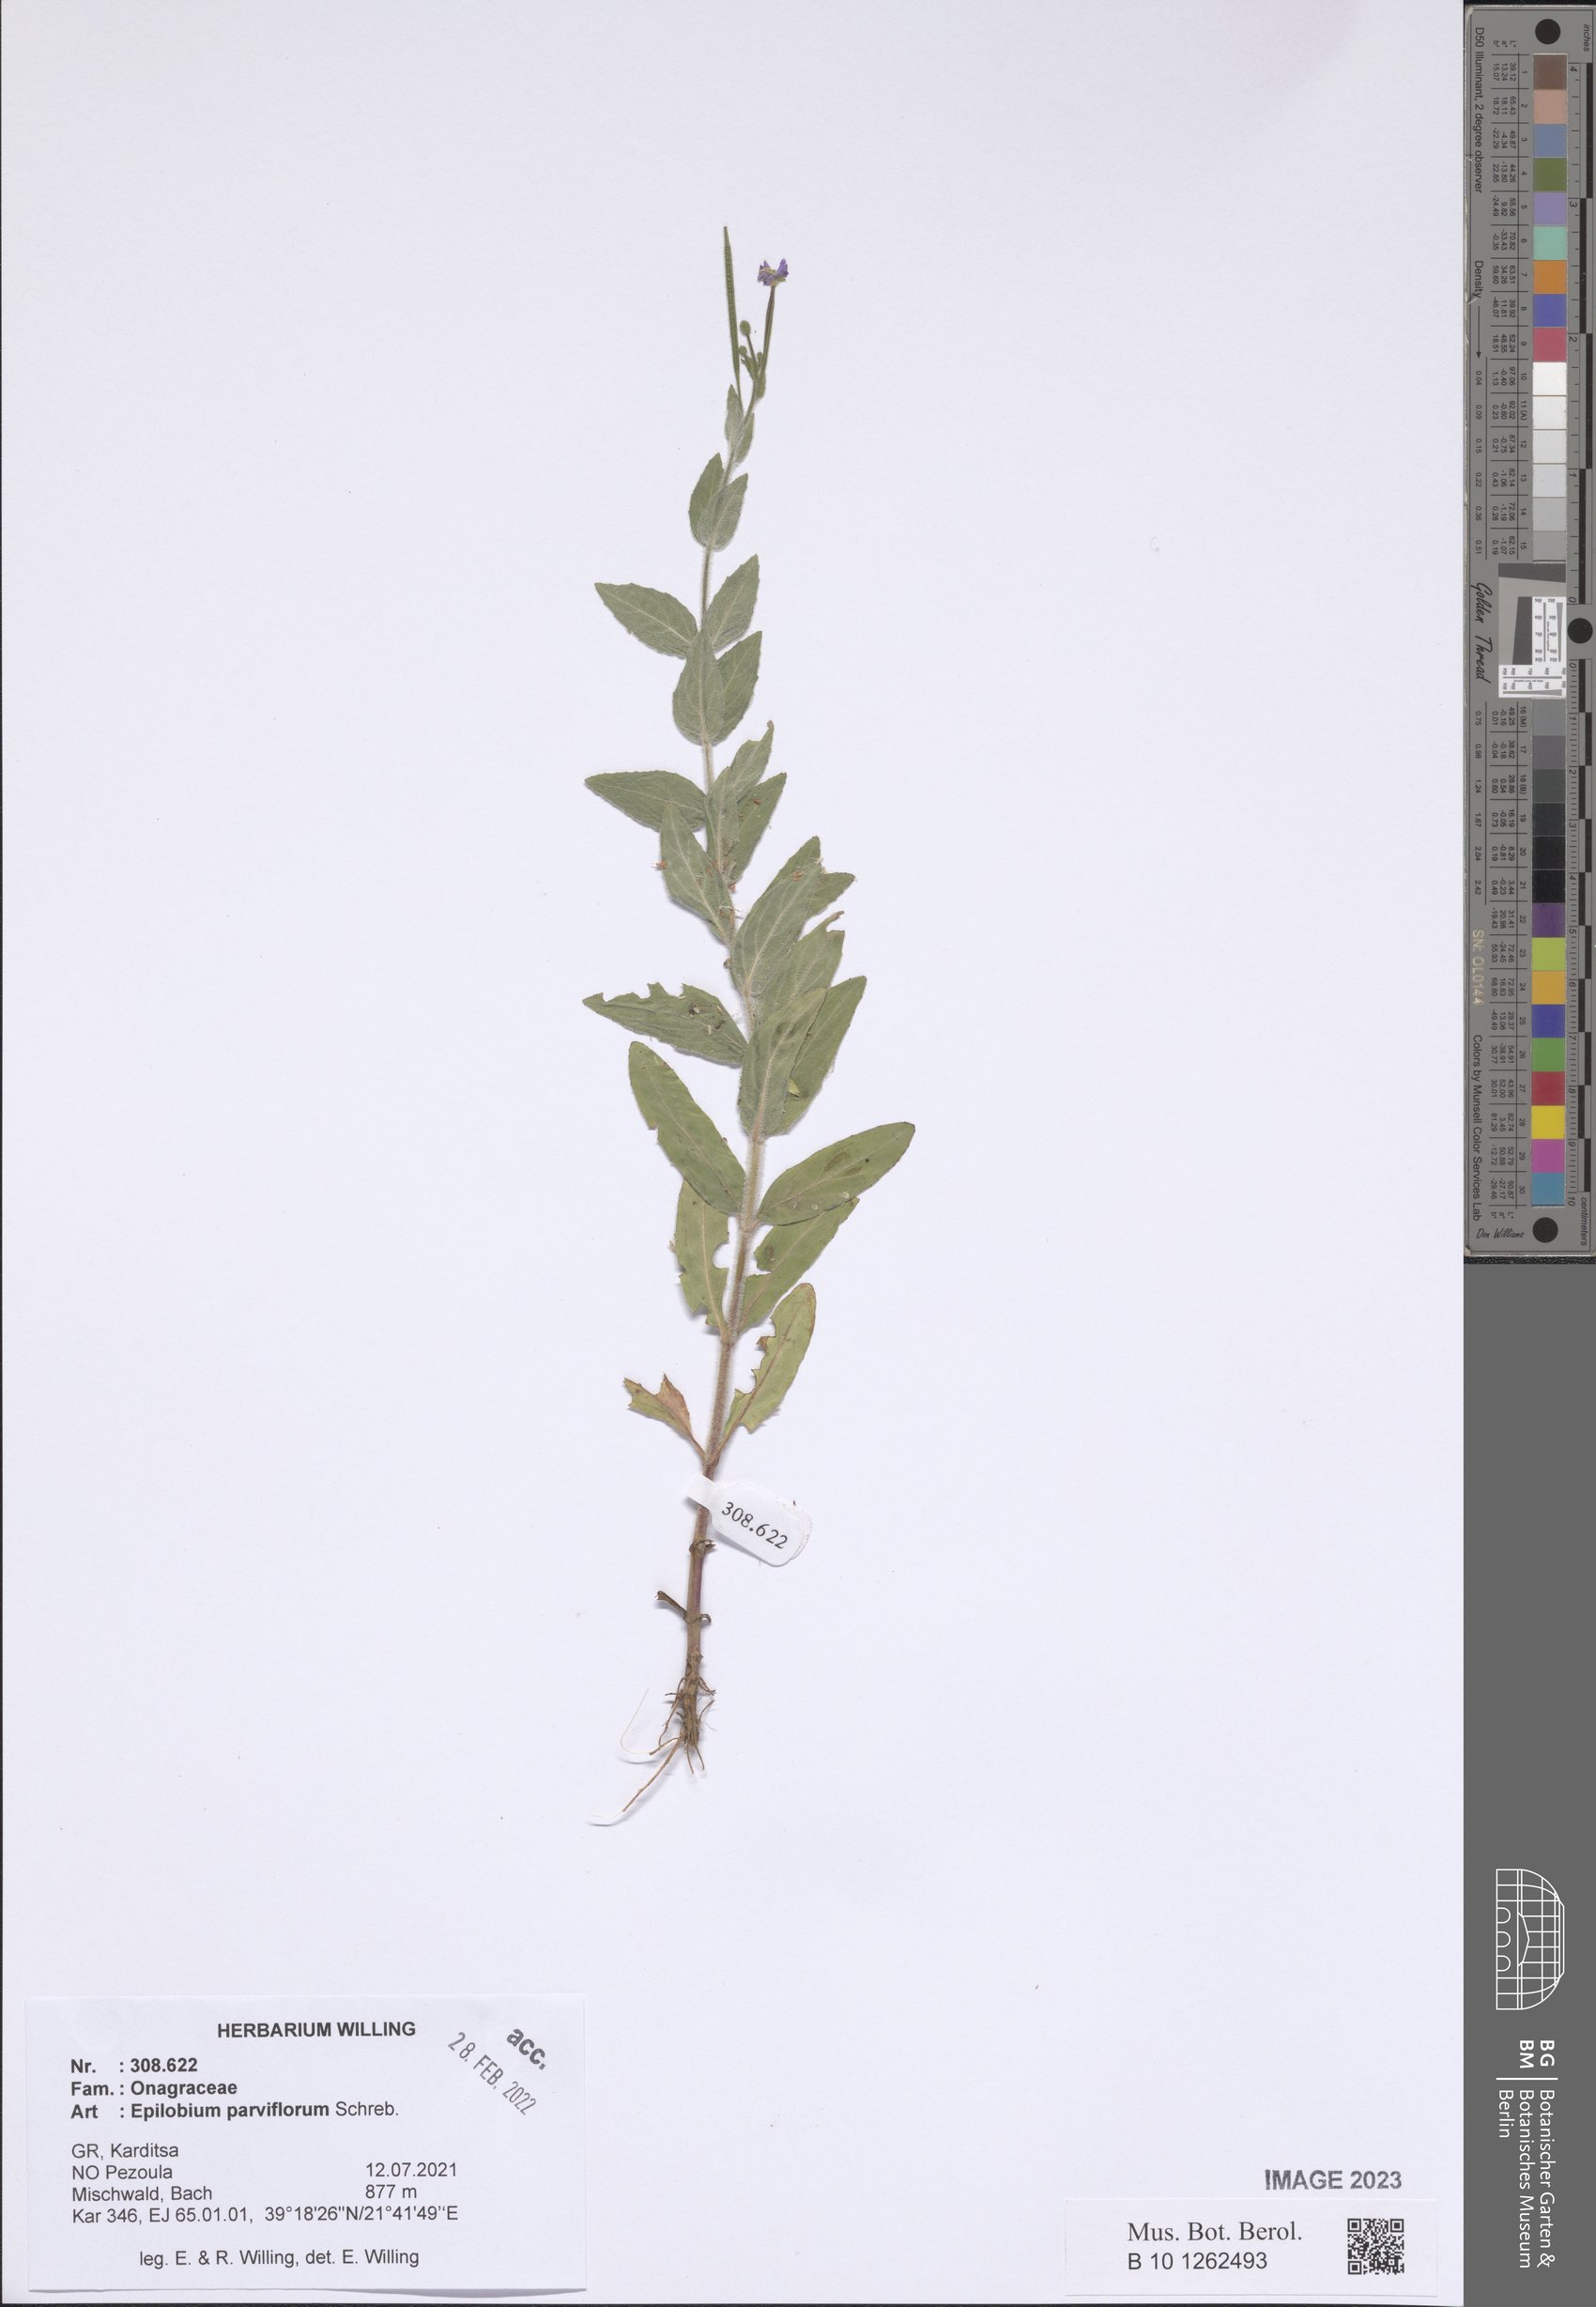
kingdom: Plantae
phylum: Tracheophyta
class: Magnoliopsida
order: Myrtales
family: Onagraceae
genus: Epilobium
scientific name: Epilobium parviflorum
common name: Hoary willowherb
